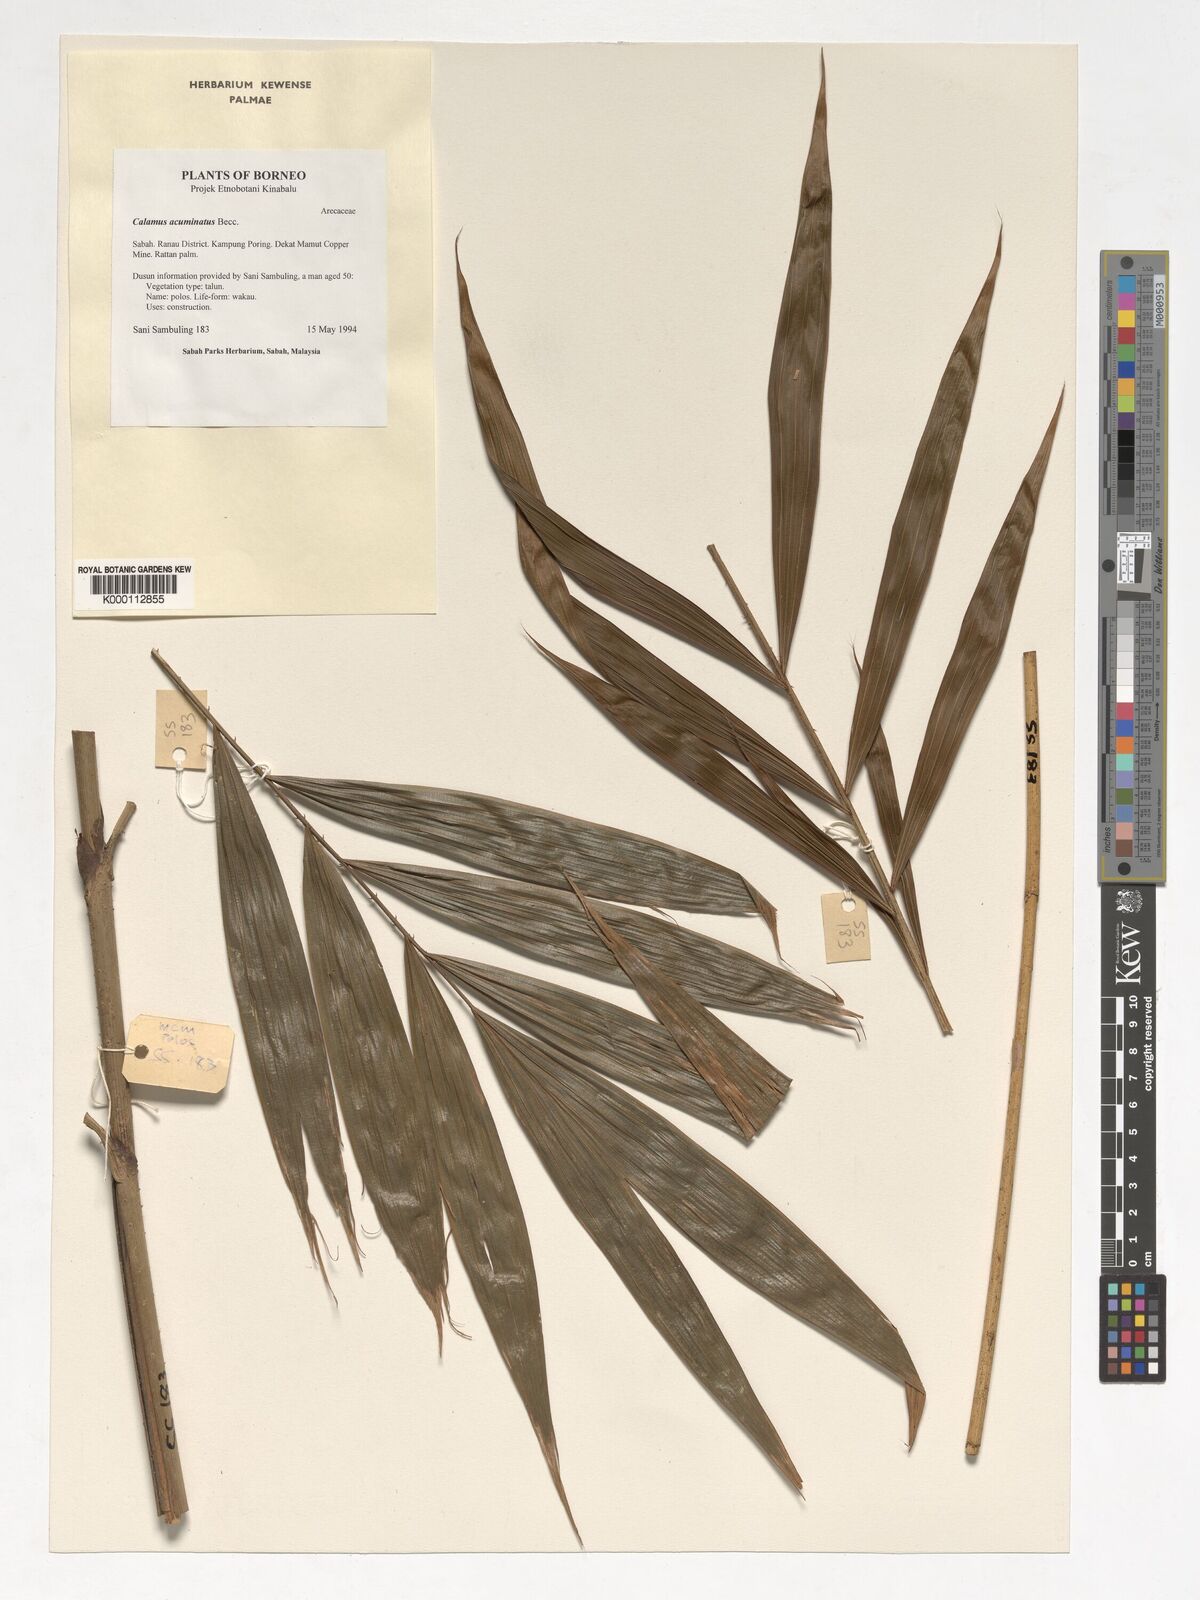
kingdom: Plantae
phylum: Tracheophyta
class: Liliopsida
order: Arecales
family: Arecaceae
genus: Calamus
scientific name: Calamus javensis
